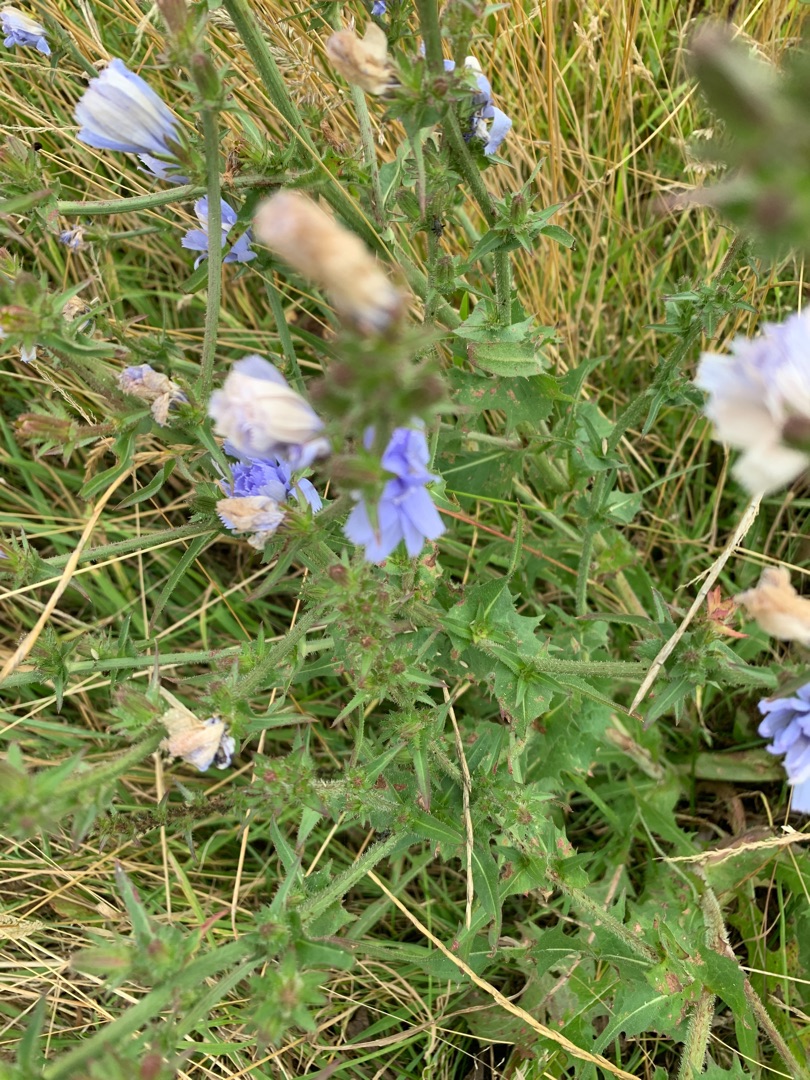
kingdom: Plantae
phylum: Tracheophyta
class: Magnoliopsida
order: Asterales
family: Asteraceae
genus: Cichorium
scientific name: Cichorium intybus
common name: Cikorie
